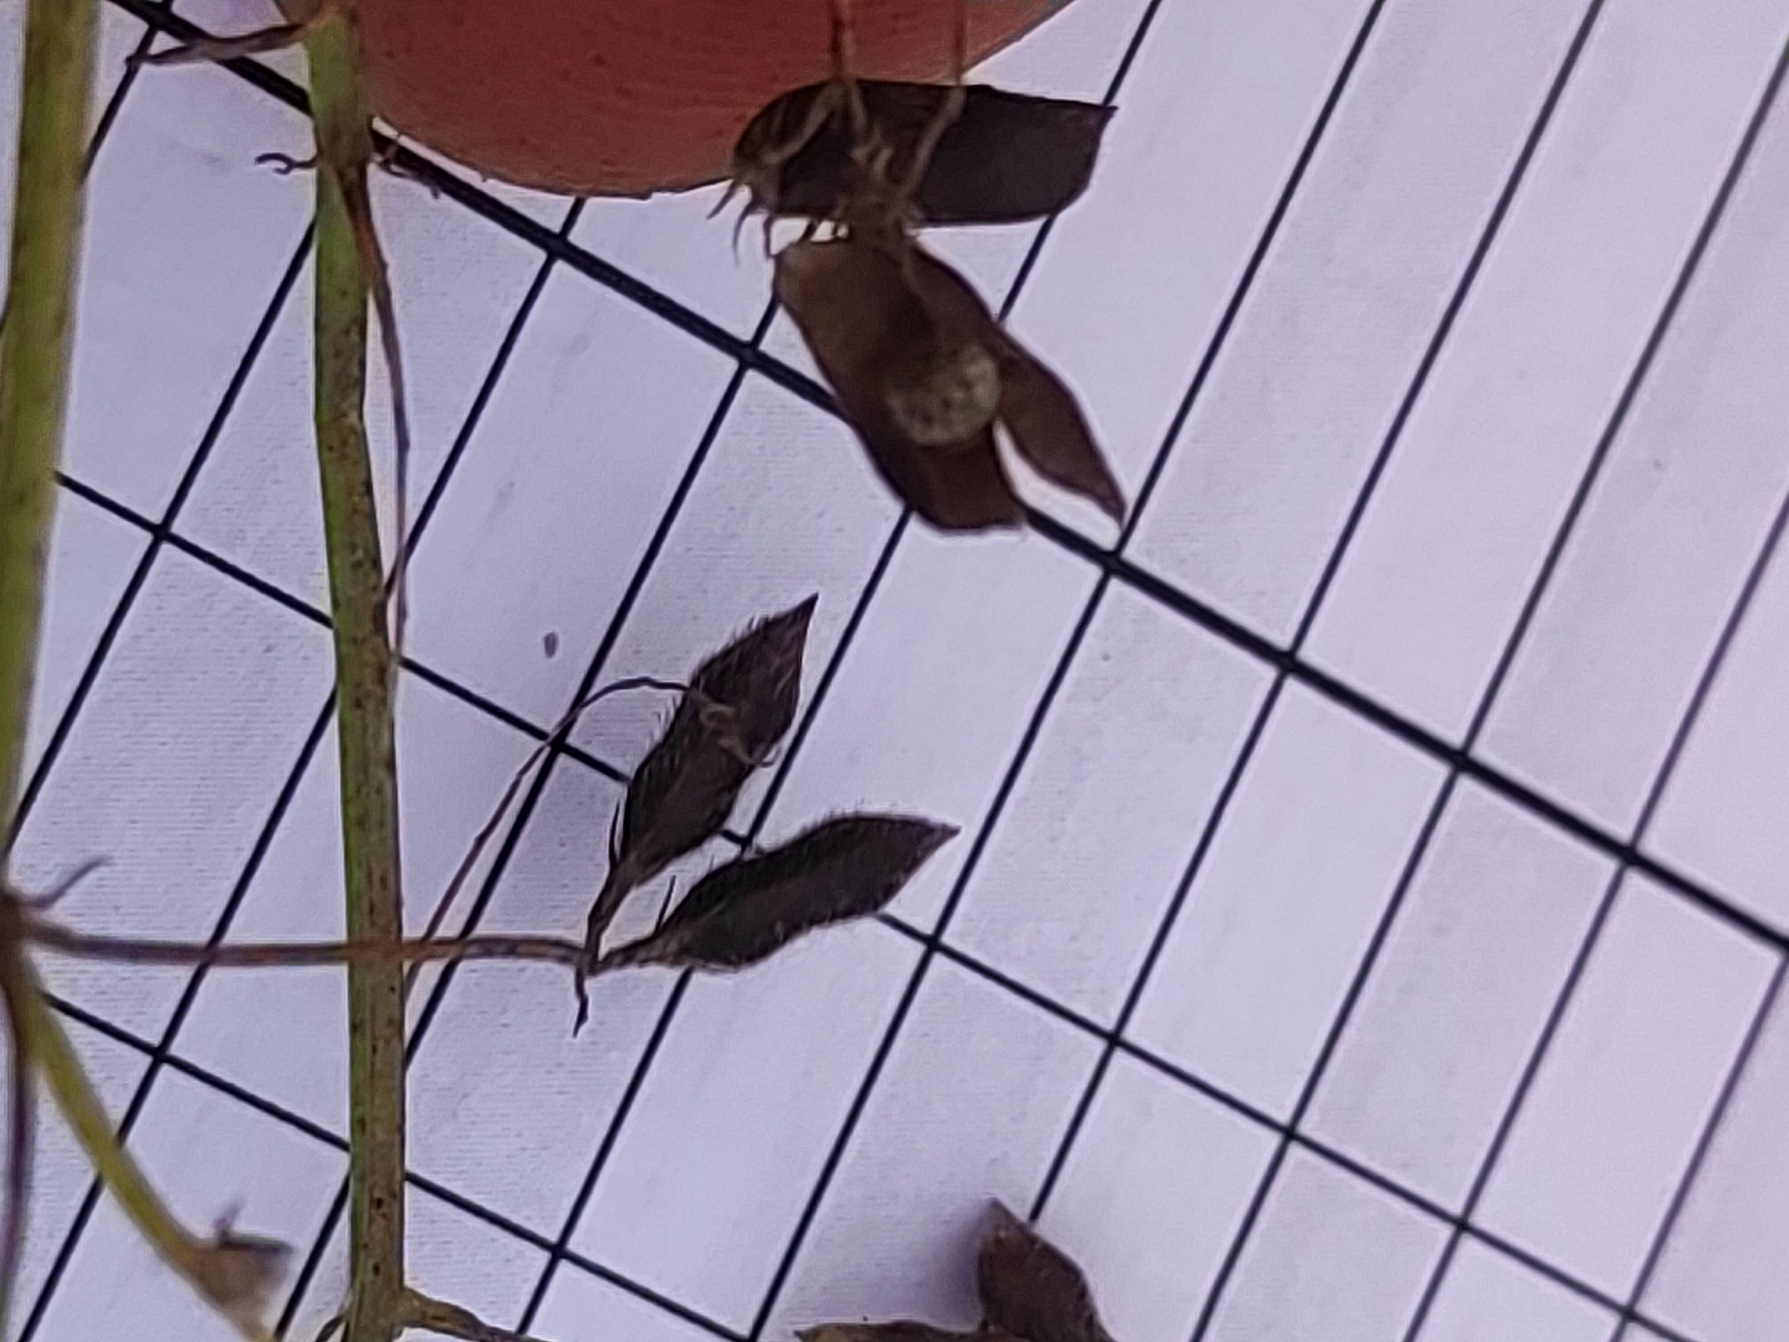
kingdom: Plantae
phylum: Tracheophyta
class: Magnoliopsida
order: Fabales
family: Fabaceae
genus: Vicia
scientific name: Vicia hirsuta
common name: Tofrøet vikke
